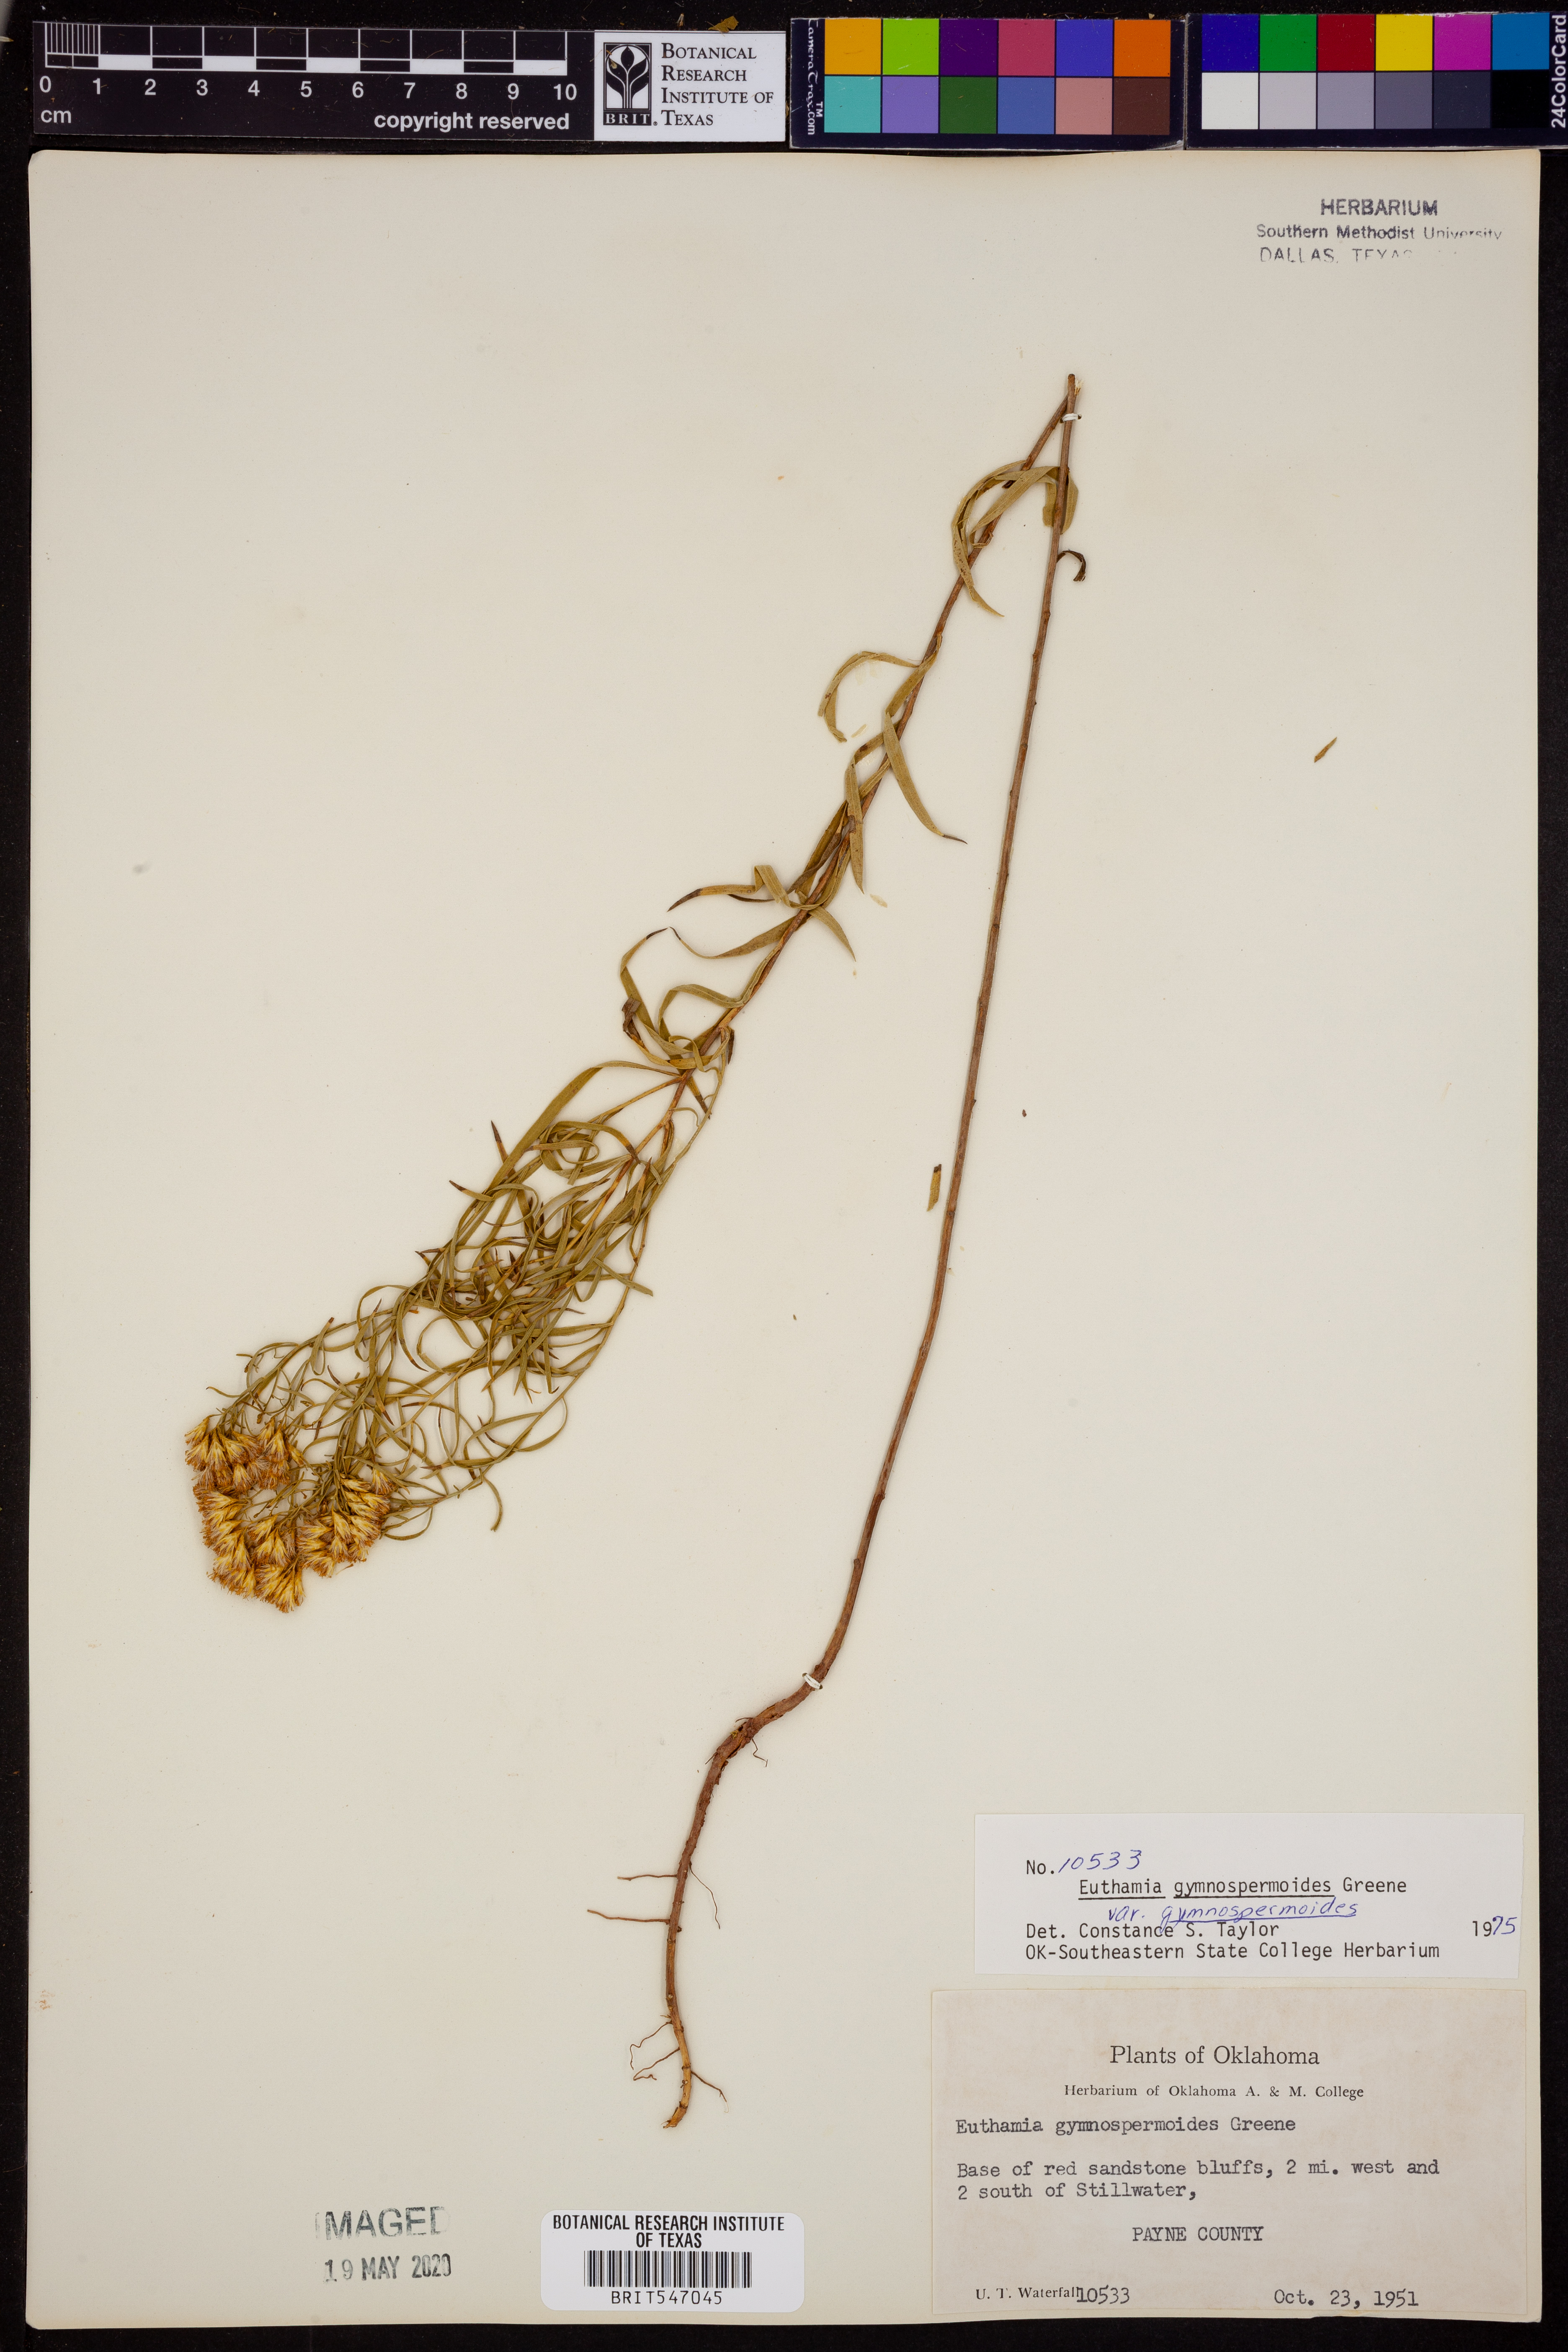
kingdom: Plantae
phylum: Tracheophyta
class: Magnoliopsida
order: Asterales
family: Asteraceae
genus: Euthamia
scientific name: Euthamia gymnospermoides
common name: Great plains goldentop
